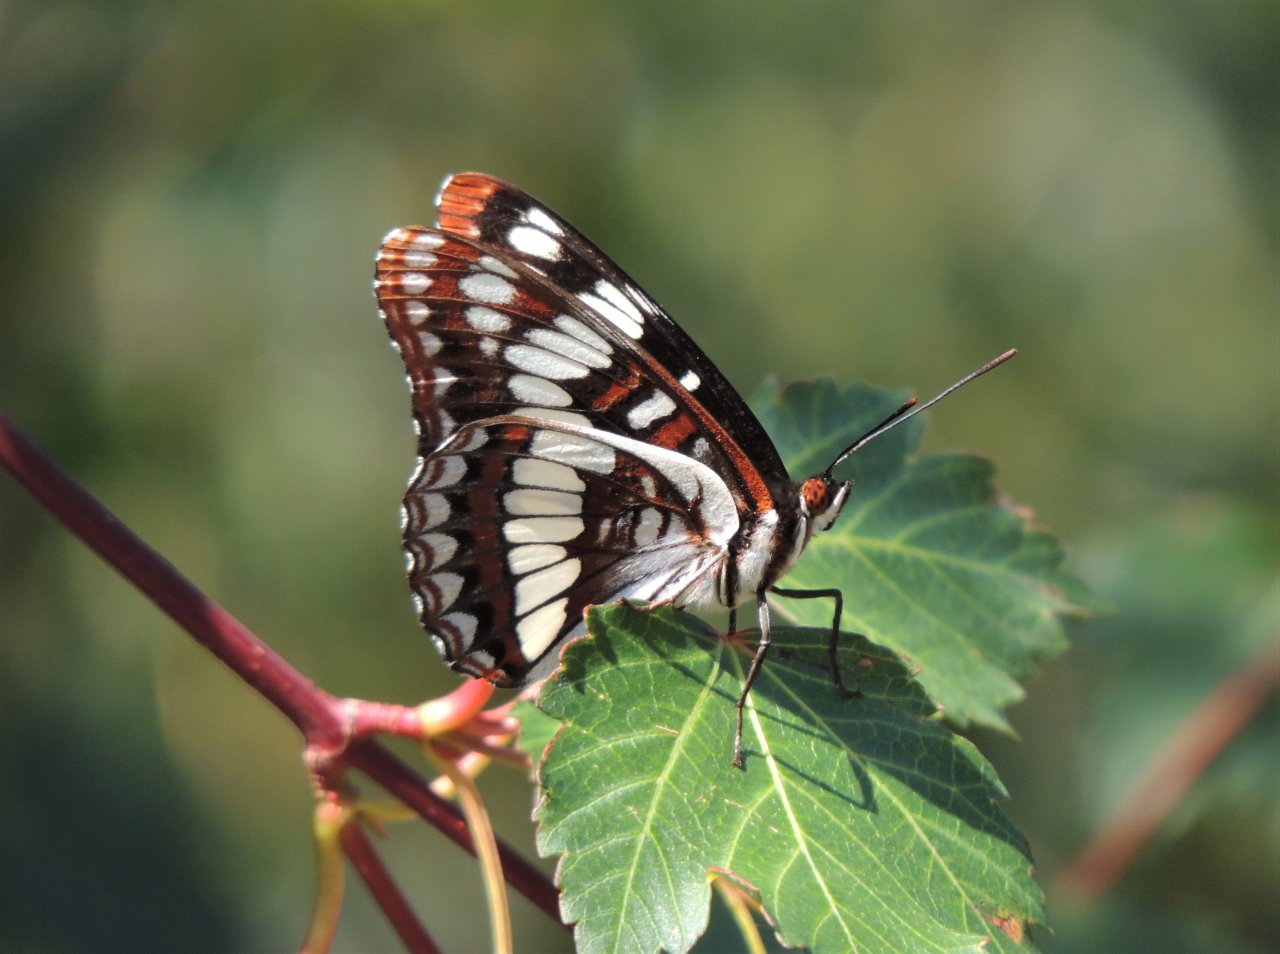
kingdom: Animalia
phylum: Arthropoda
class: Insecta
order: Lepidoptera
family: Nymphalidae
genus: Limenitis
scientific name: Limenitis lorquini
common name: Lorquin's Admiral
